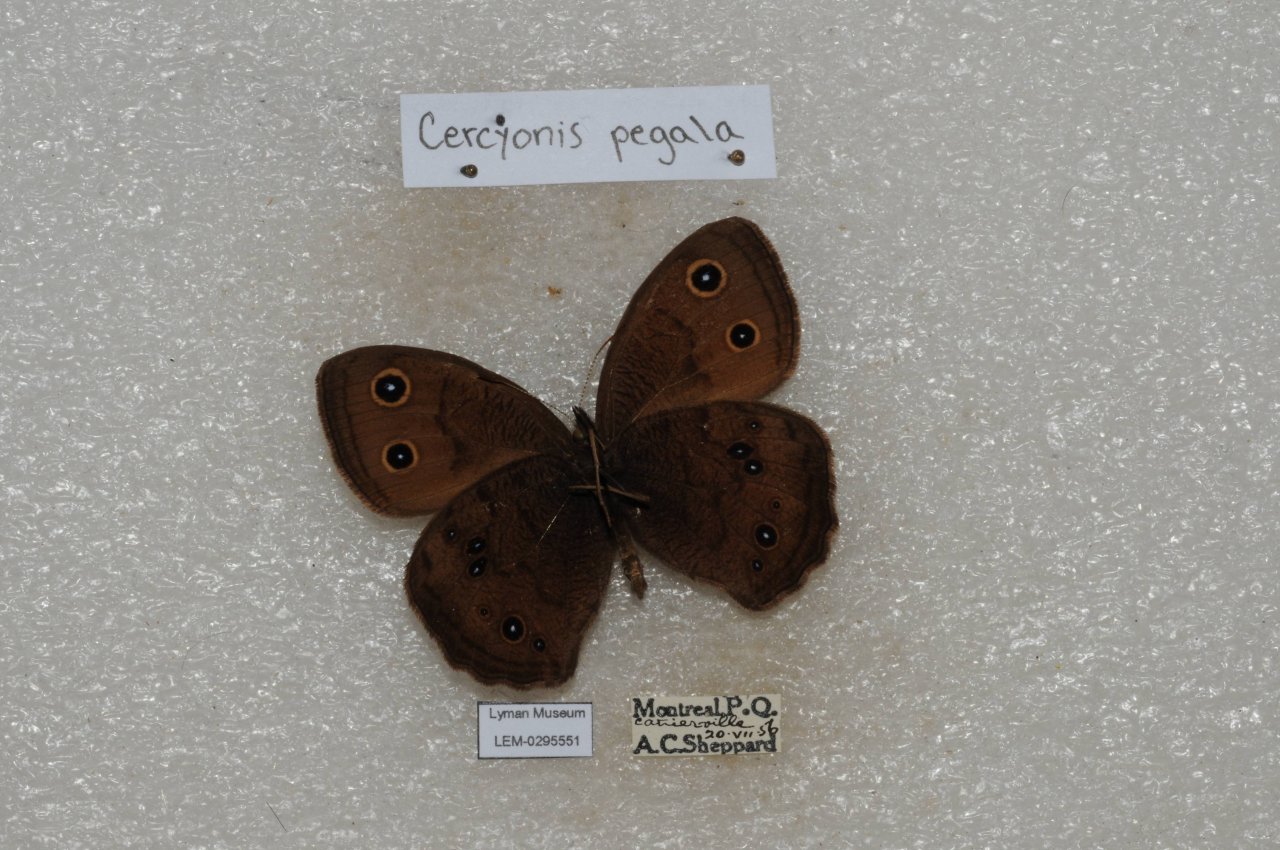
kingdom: Animalia
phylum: Arthropoda
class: Insecta
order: Lepidoptera
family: Nymphalidae
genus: Cercyonis
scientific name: Cercyonis pegala
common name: Common Wood-Nymph
